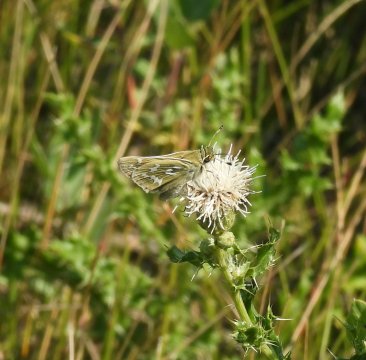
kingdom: Animalia
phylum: Arthropoda
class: Insecta
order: Lepidoptera
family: Hesperiidae
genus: Hesperia
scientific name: Hesperia comma
